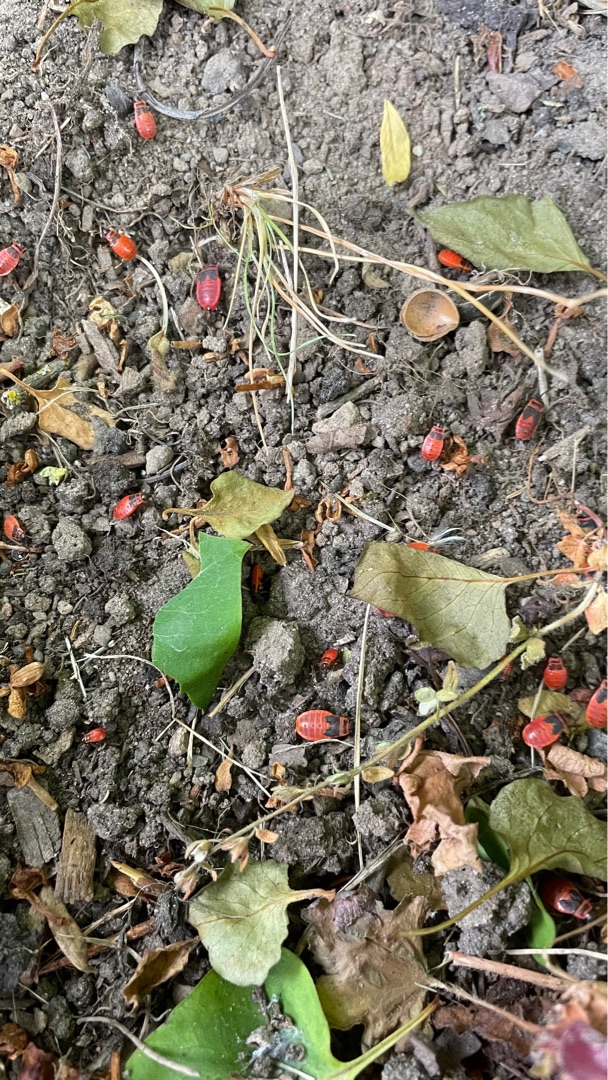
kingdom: Animalia
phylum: Arthropoda
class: Insecta
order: Hemiptera
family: Pyrrhocoridae
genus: Pyrrhocoris
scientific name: Pyrrhocoris apterus
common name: Ildtæge
